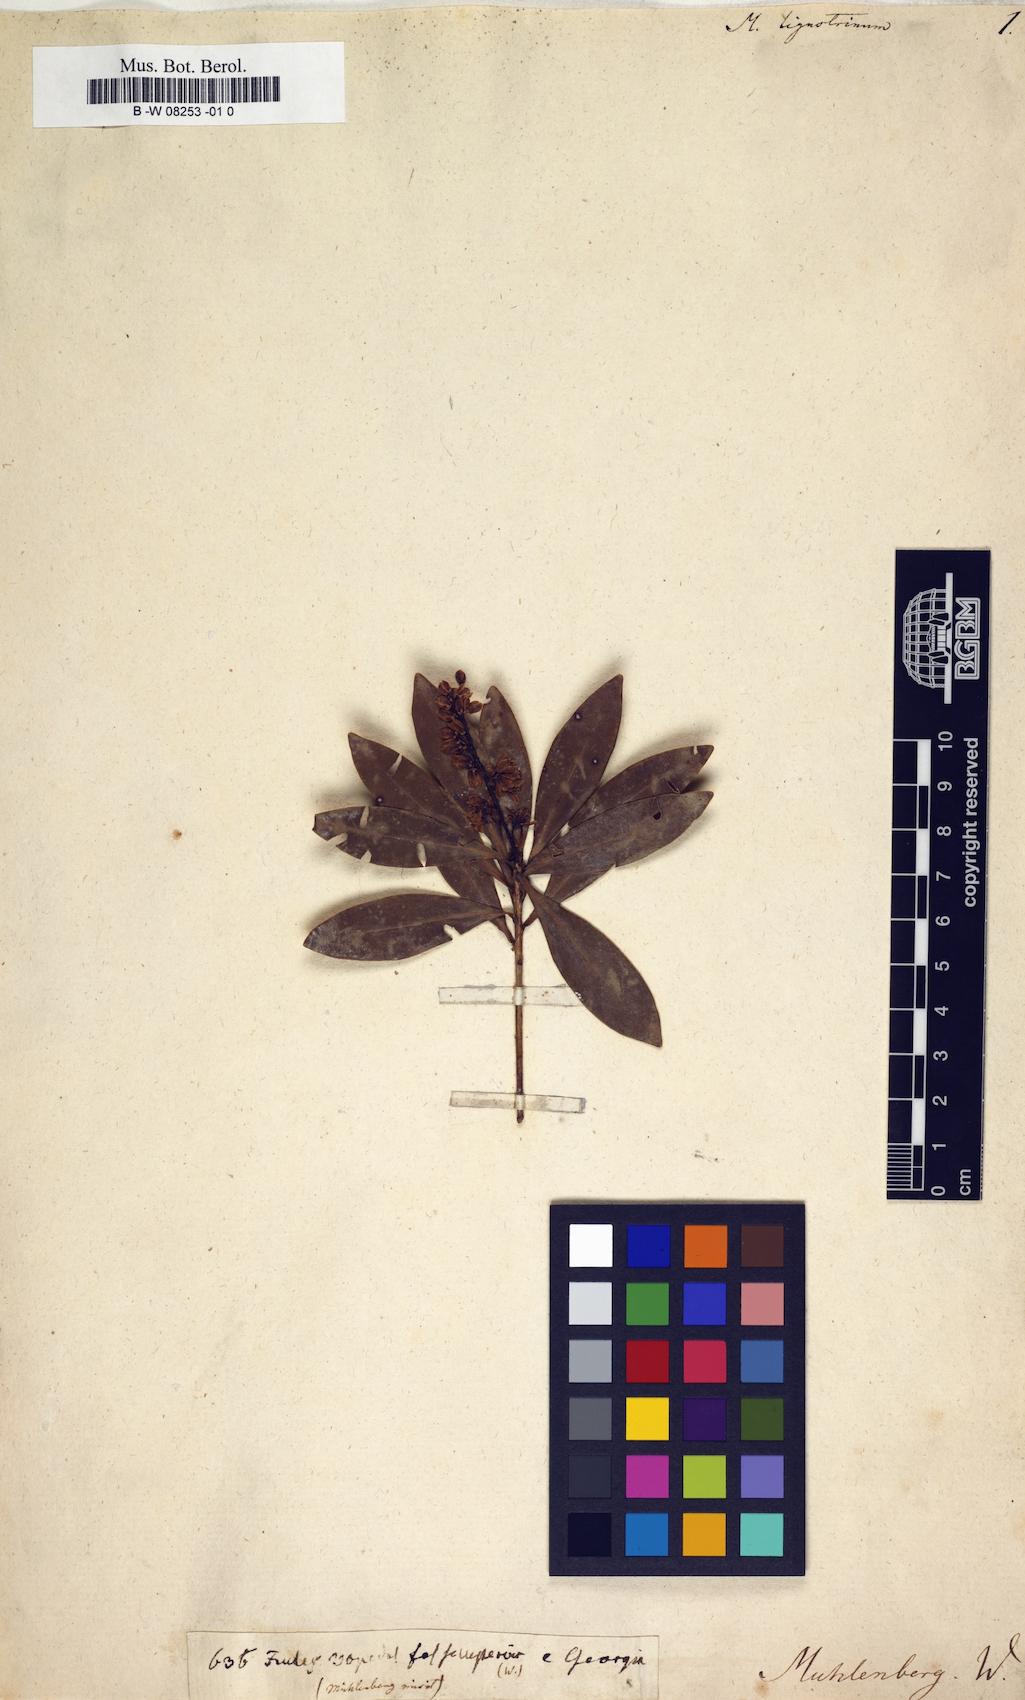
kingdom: Plantae
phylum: Tracheophyta
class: Magnoliopsida
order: Ericales
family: Cyrillaceae
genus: Cliftonia
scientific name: Cliftonia monophylla
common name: Titi
